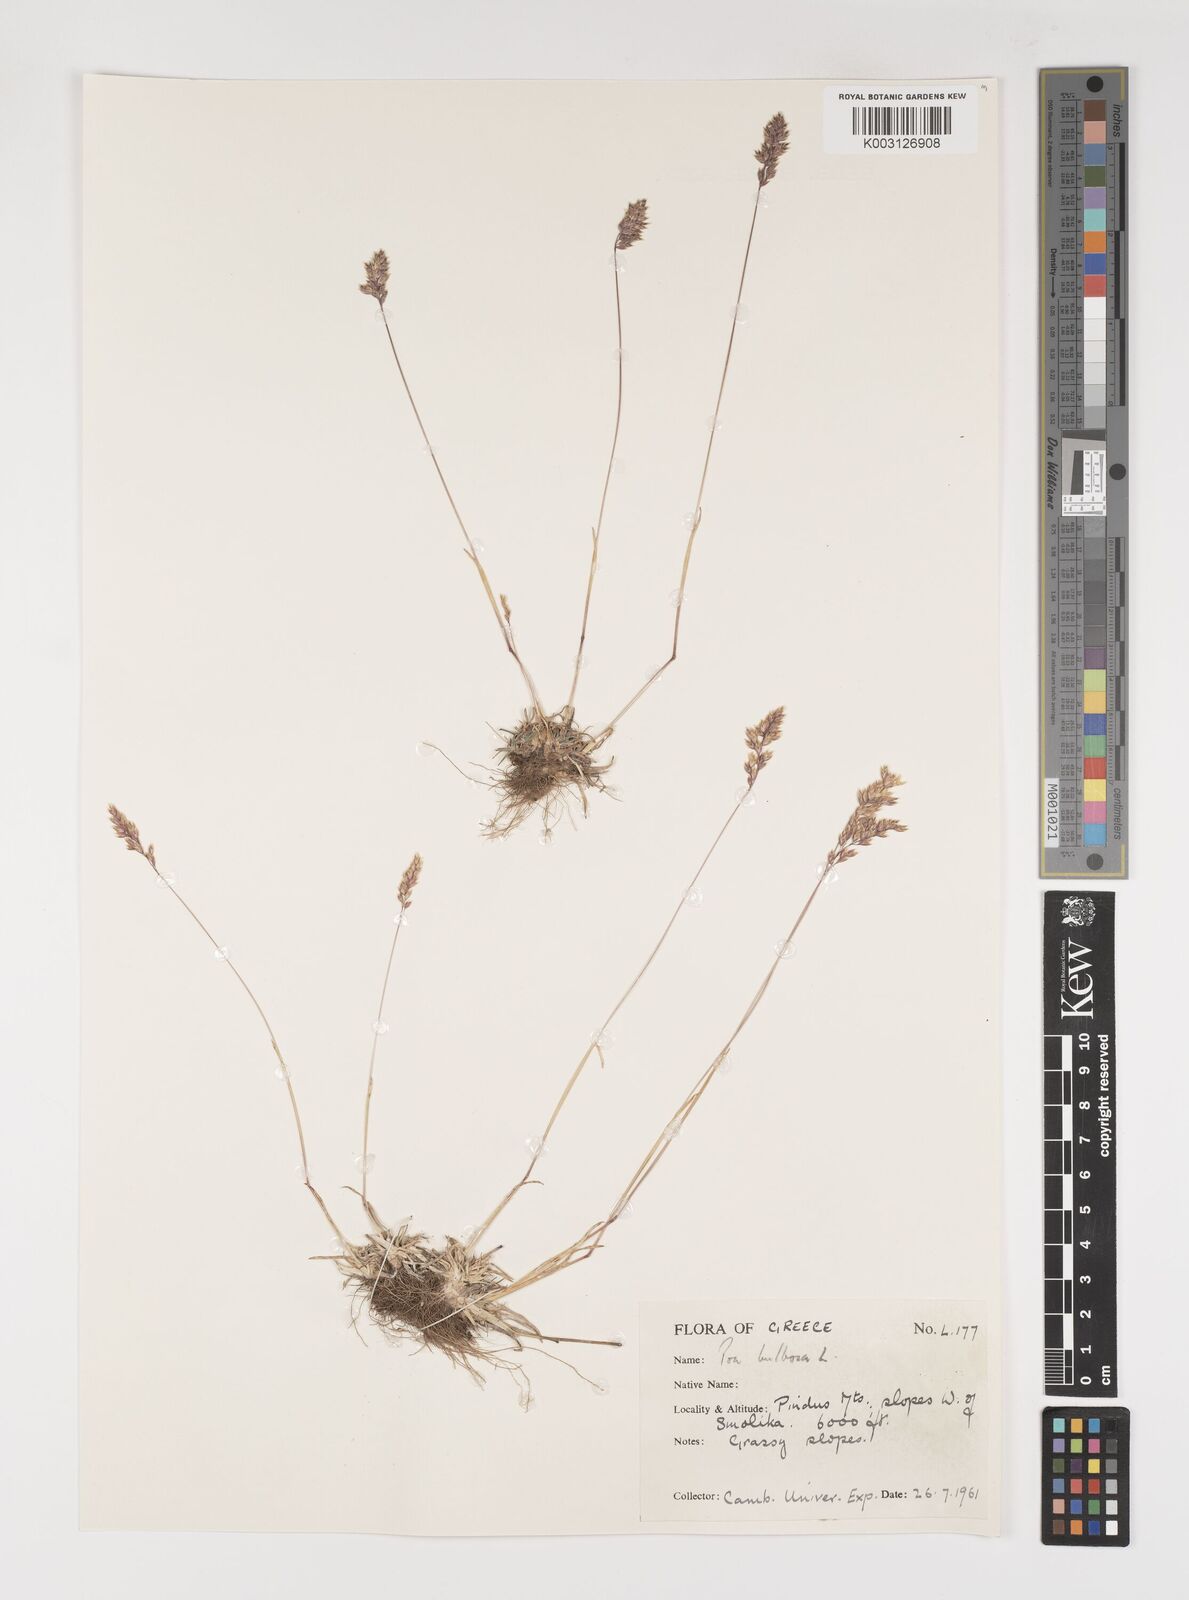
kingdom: Plantae
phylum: Tracheophyta
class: Liliopsida
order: Poales
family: Poaceae
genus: Poa
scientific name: Poa bulbosa
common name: Bulbous bluegrass
